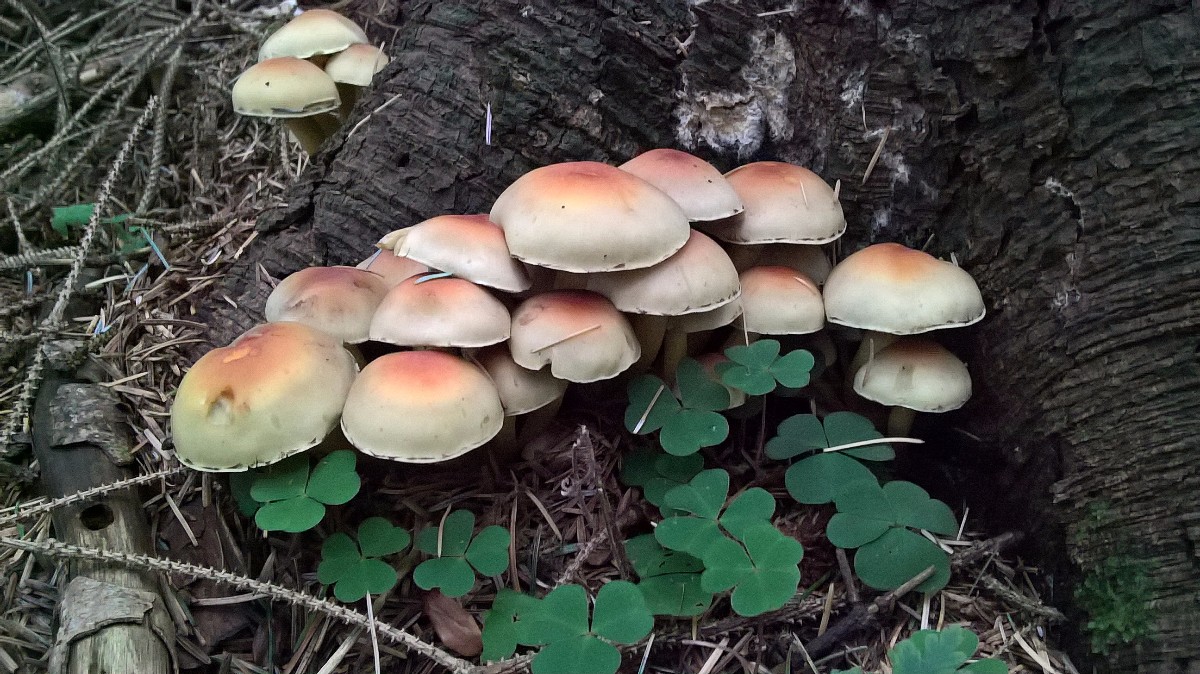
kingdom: Fungi
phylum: Basidiomycota
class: Agaricomycetes
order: Agaricales
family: Strophariaceae
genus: Hypholoma
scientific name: Hypholoma fasciculare
